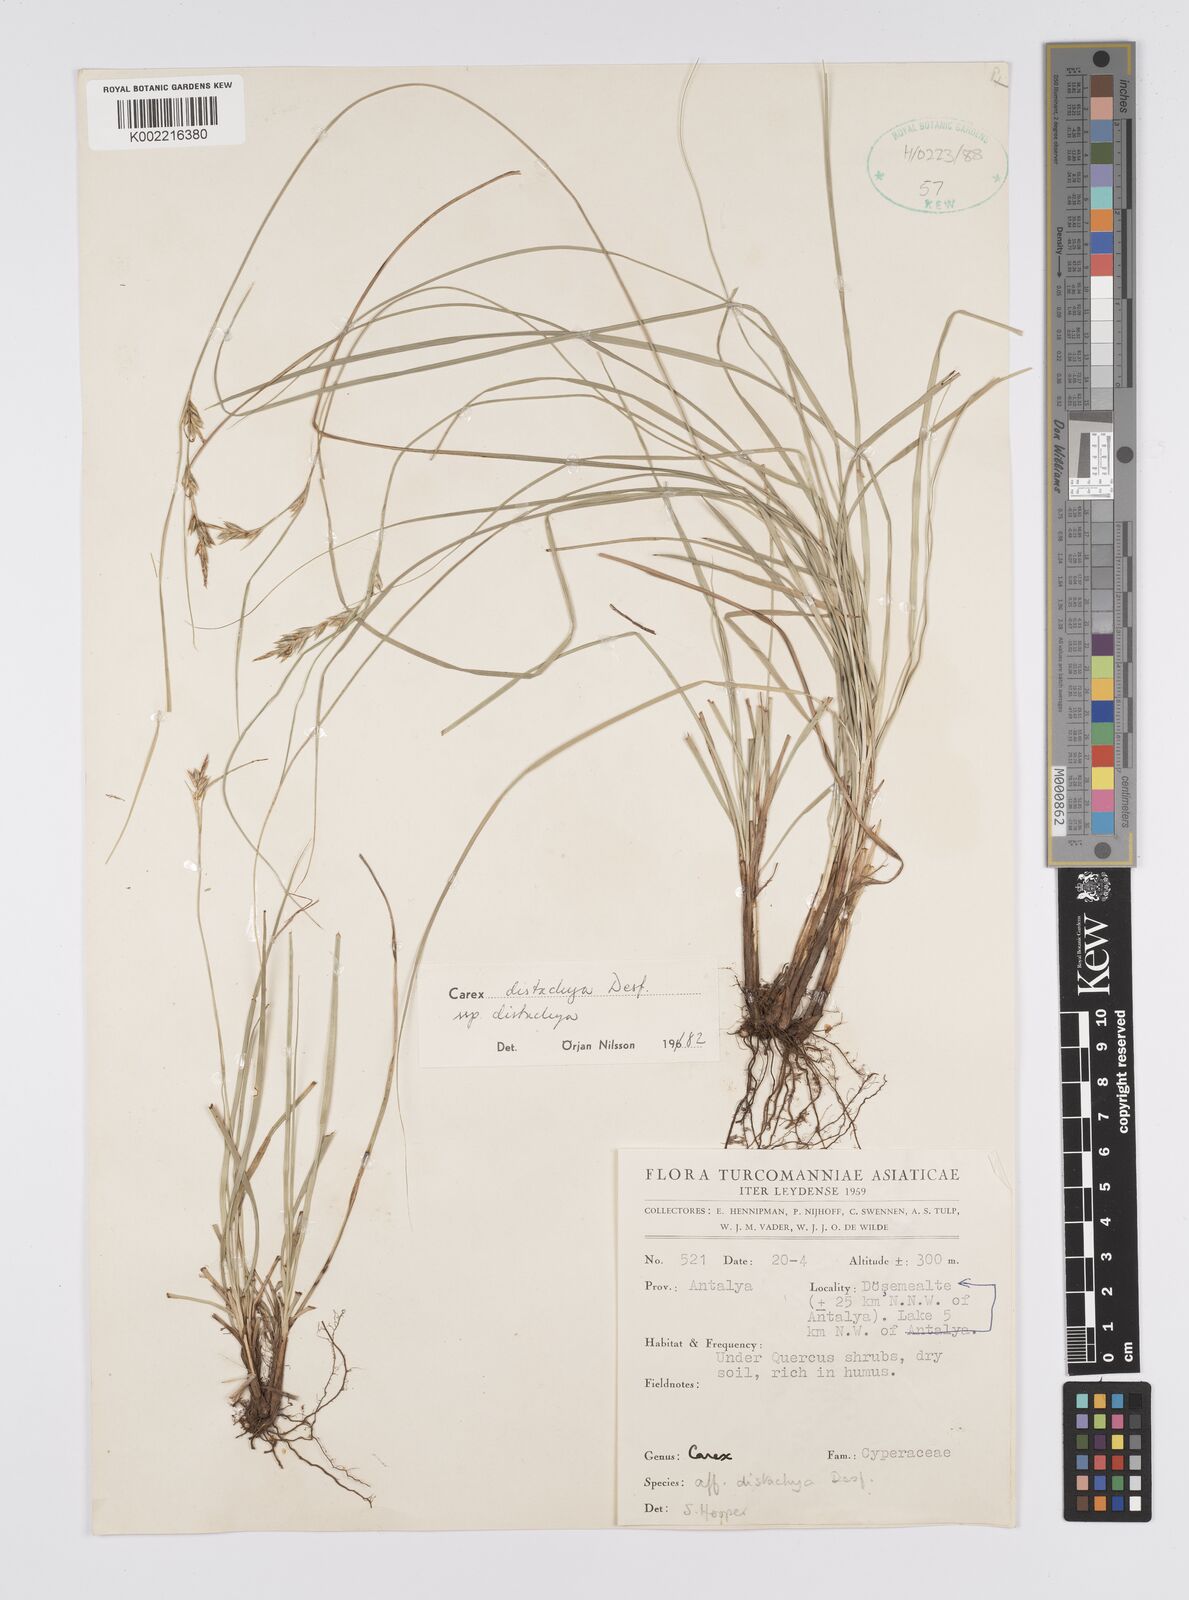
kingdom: Plantae
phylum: Tracheophyta
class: Liliopsida
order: Poales
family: Cyperaceae
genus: Carex
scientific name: Carex distachya
